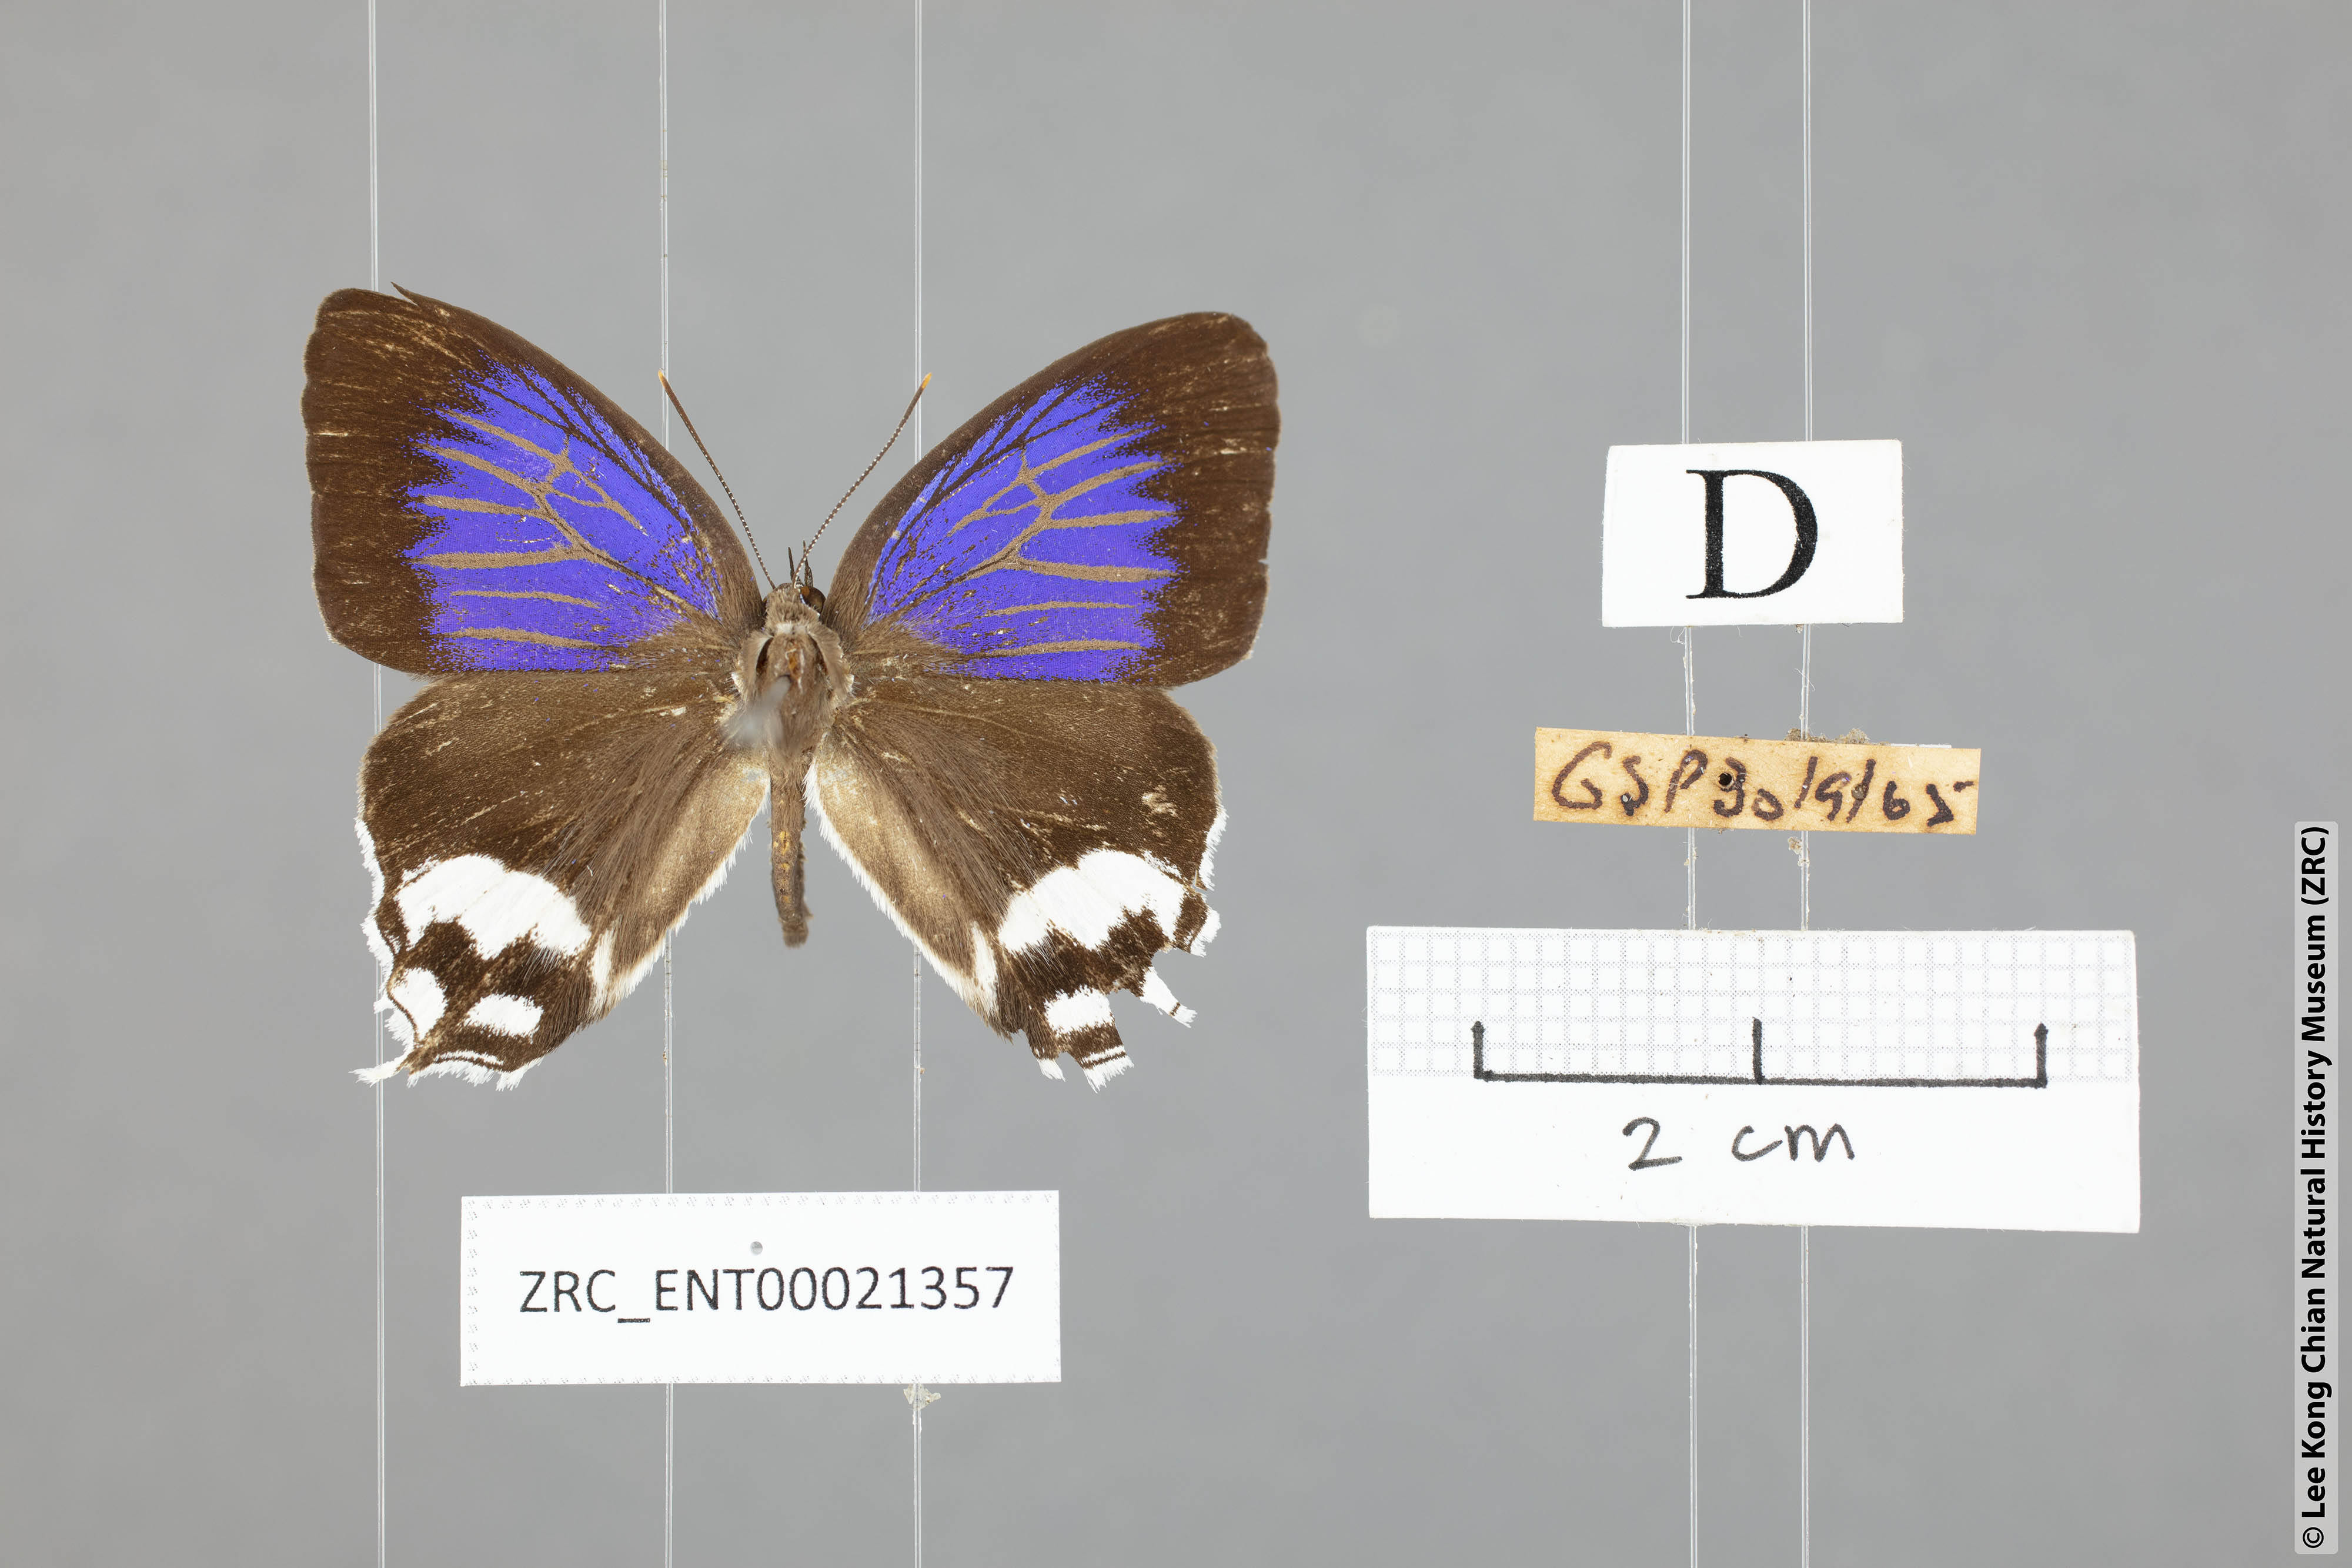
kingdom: Animalia
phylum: Arthropoda
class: Insecta
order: Lepidoptera
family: Lycaenidae
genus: Drina
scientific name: Drina
